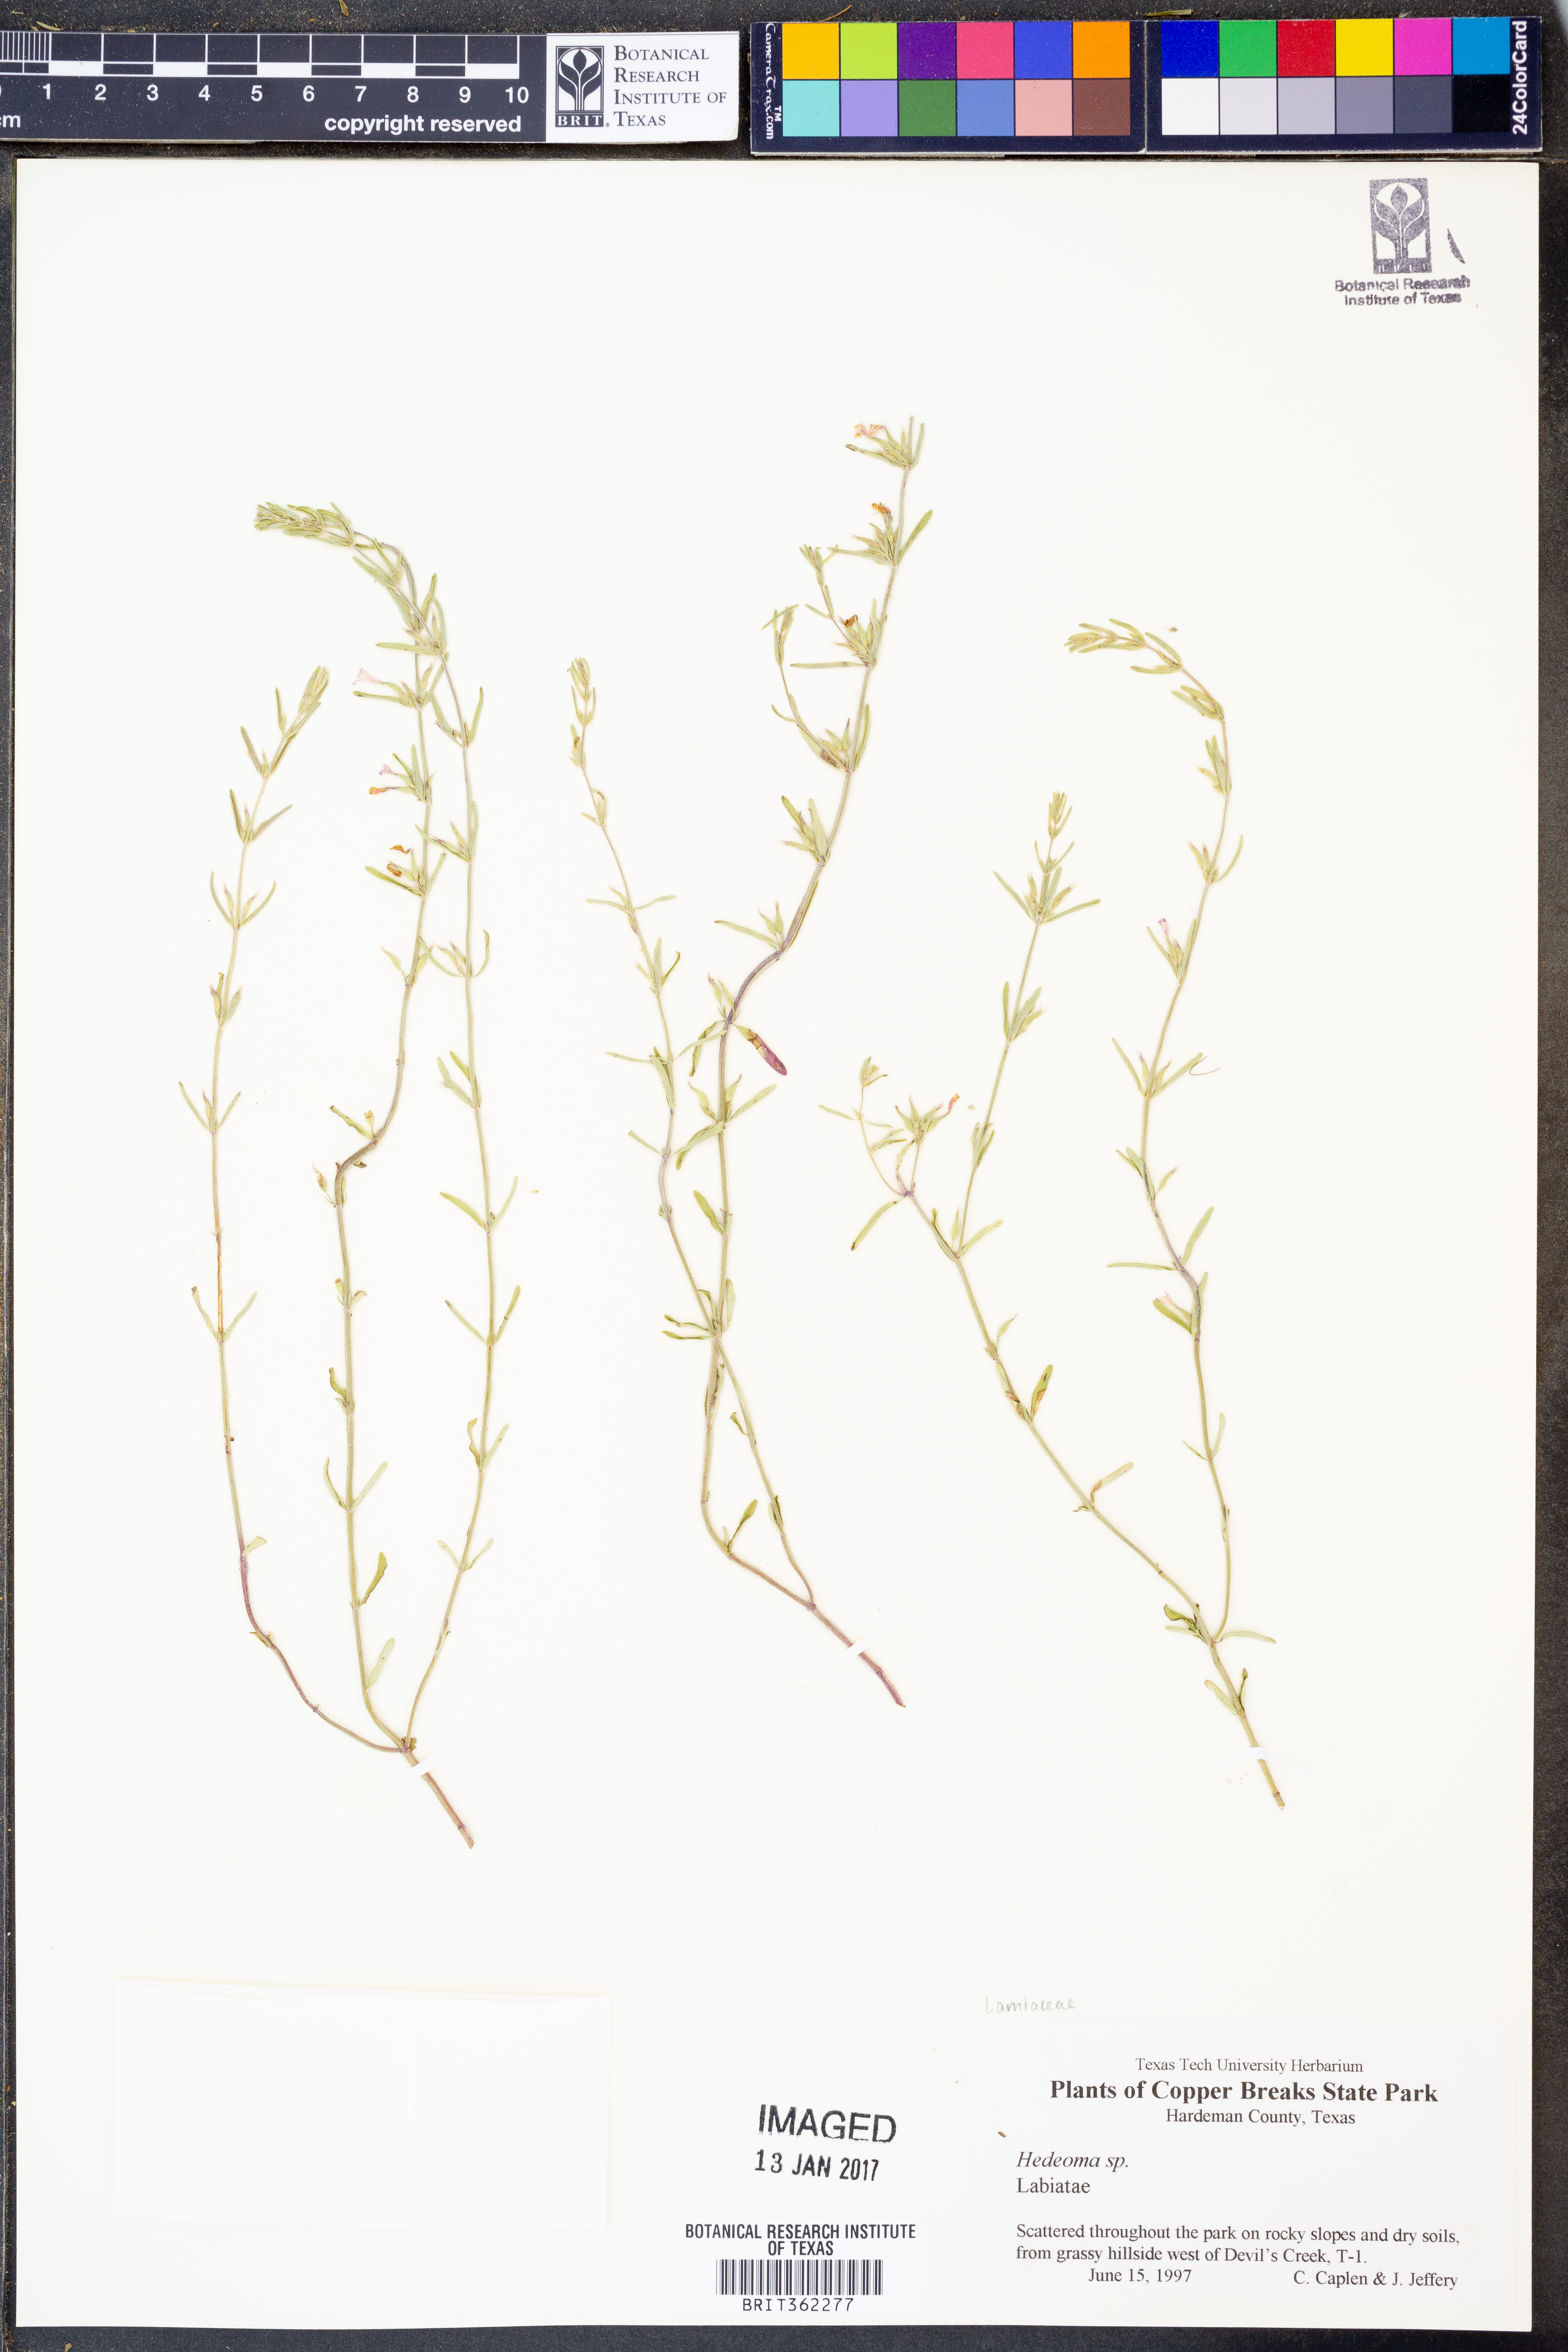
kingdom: Plantae
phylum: Tracheophyta
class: Magnoliopsida
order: Lamiales
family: Lamiaceae
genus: Hedeoma
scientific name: Hedeoma
